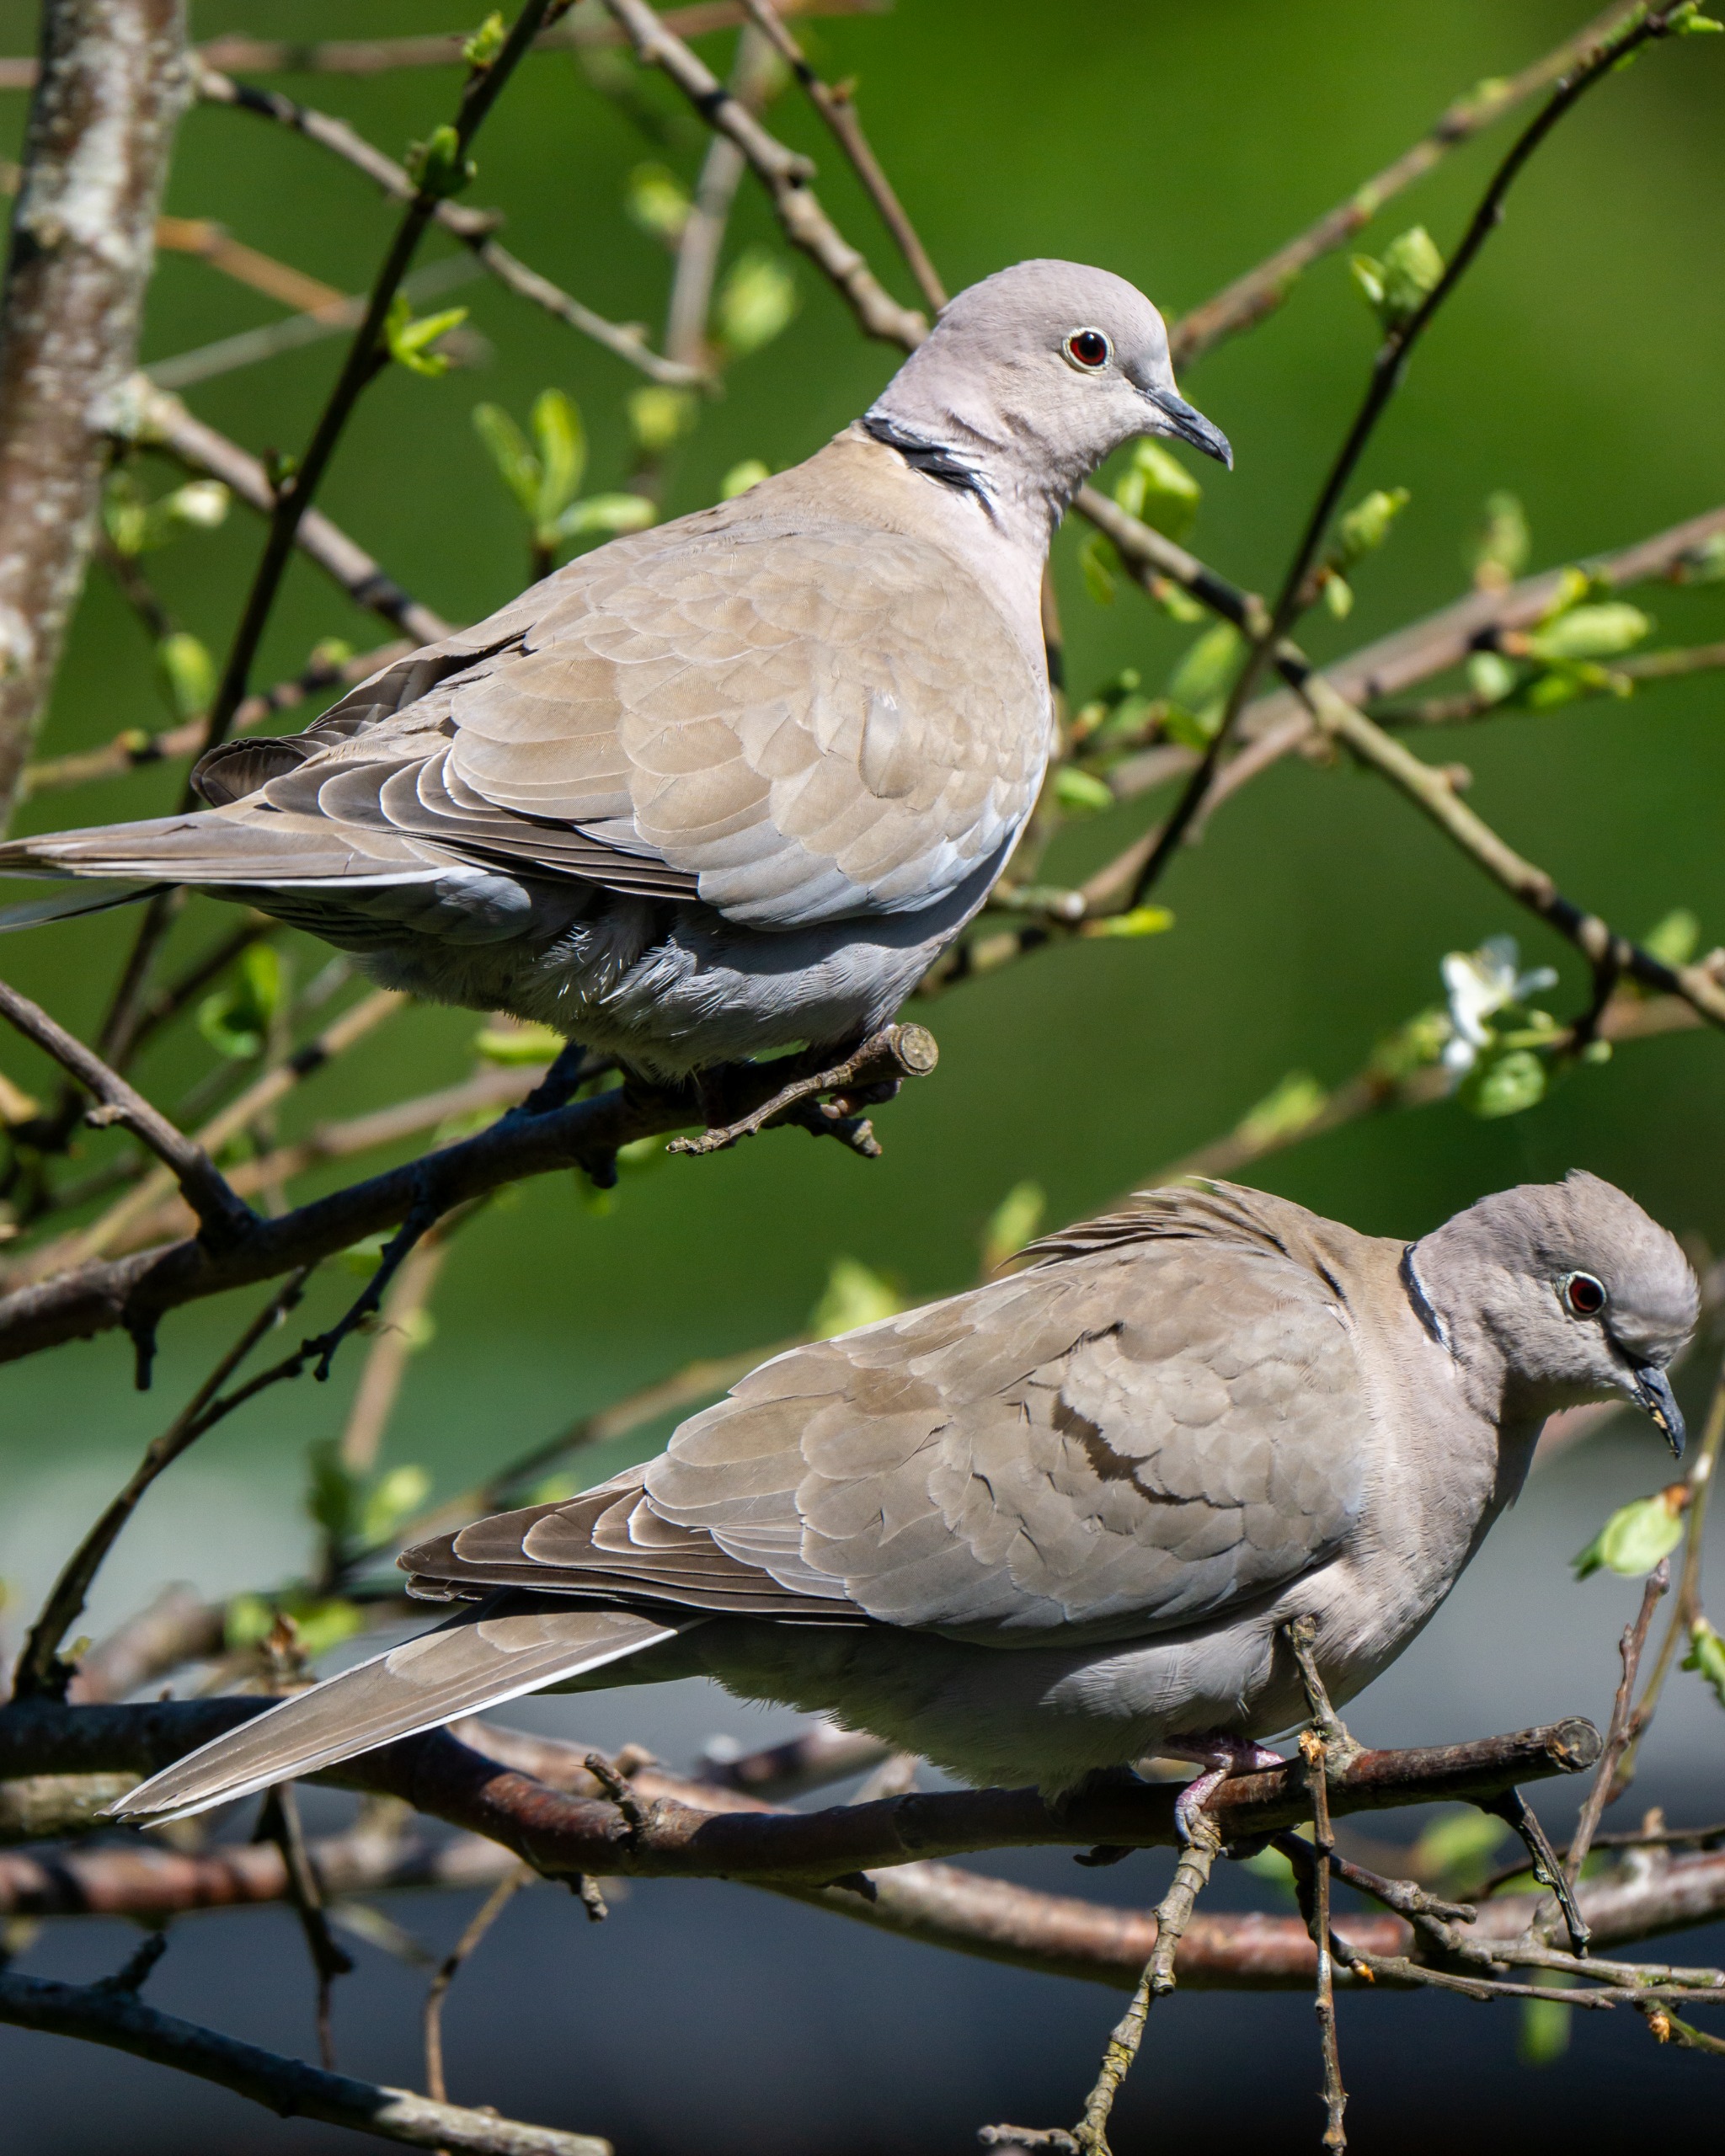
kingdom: Animalia
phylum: Chordata
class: Aves
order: Columbiformes
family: Columbidae
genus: Streptopelia
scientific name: Streptopelia decaocto
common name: Tyrkerdue
